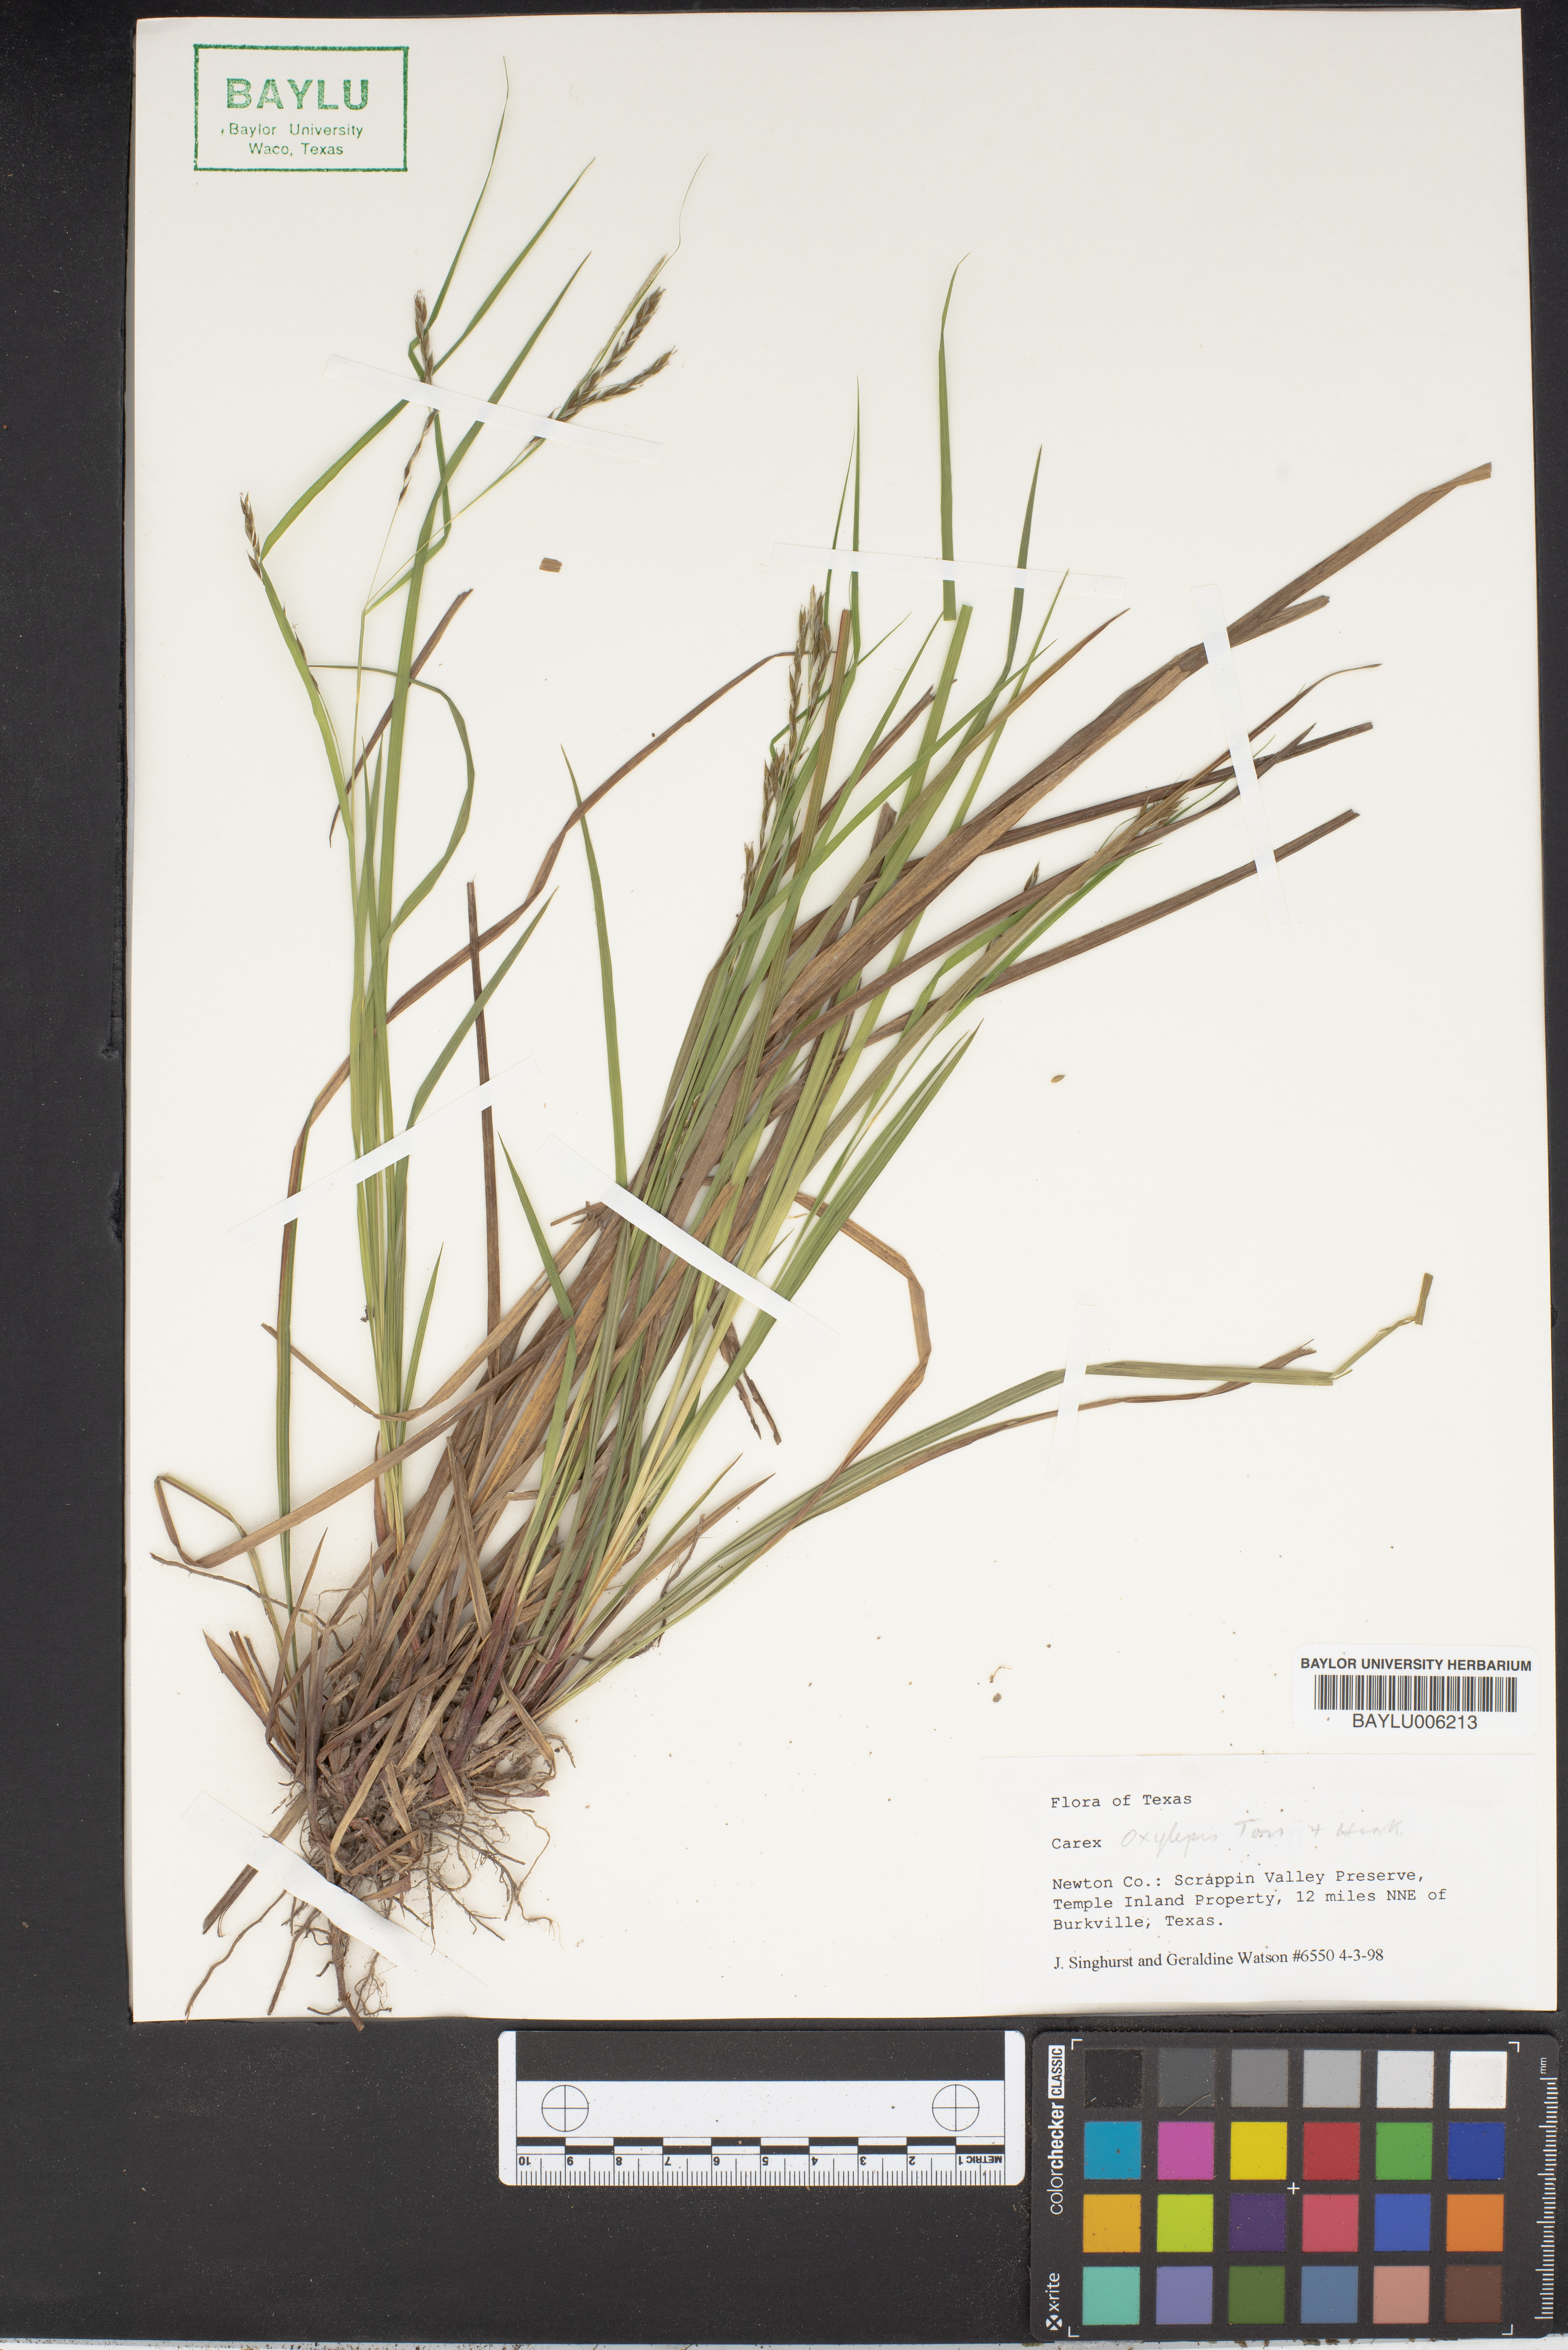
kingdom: Plantae
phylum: Tracheophyta
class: Liliopsida
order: Poales
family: Cyperaceae
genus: Carex
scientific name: Carex oxylepis
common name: Sharpscale sedge
